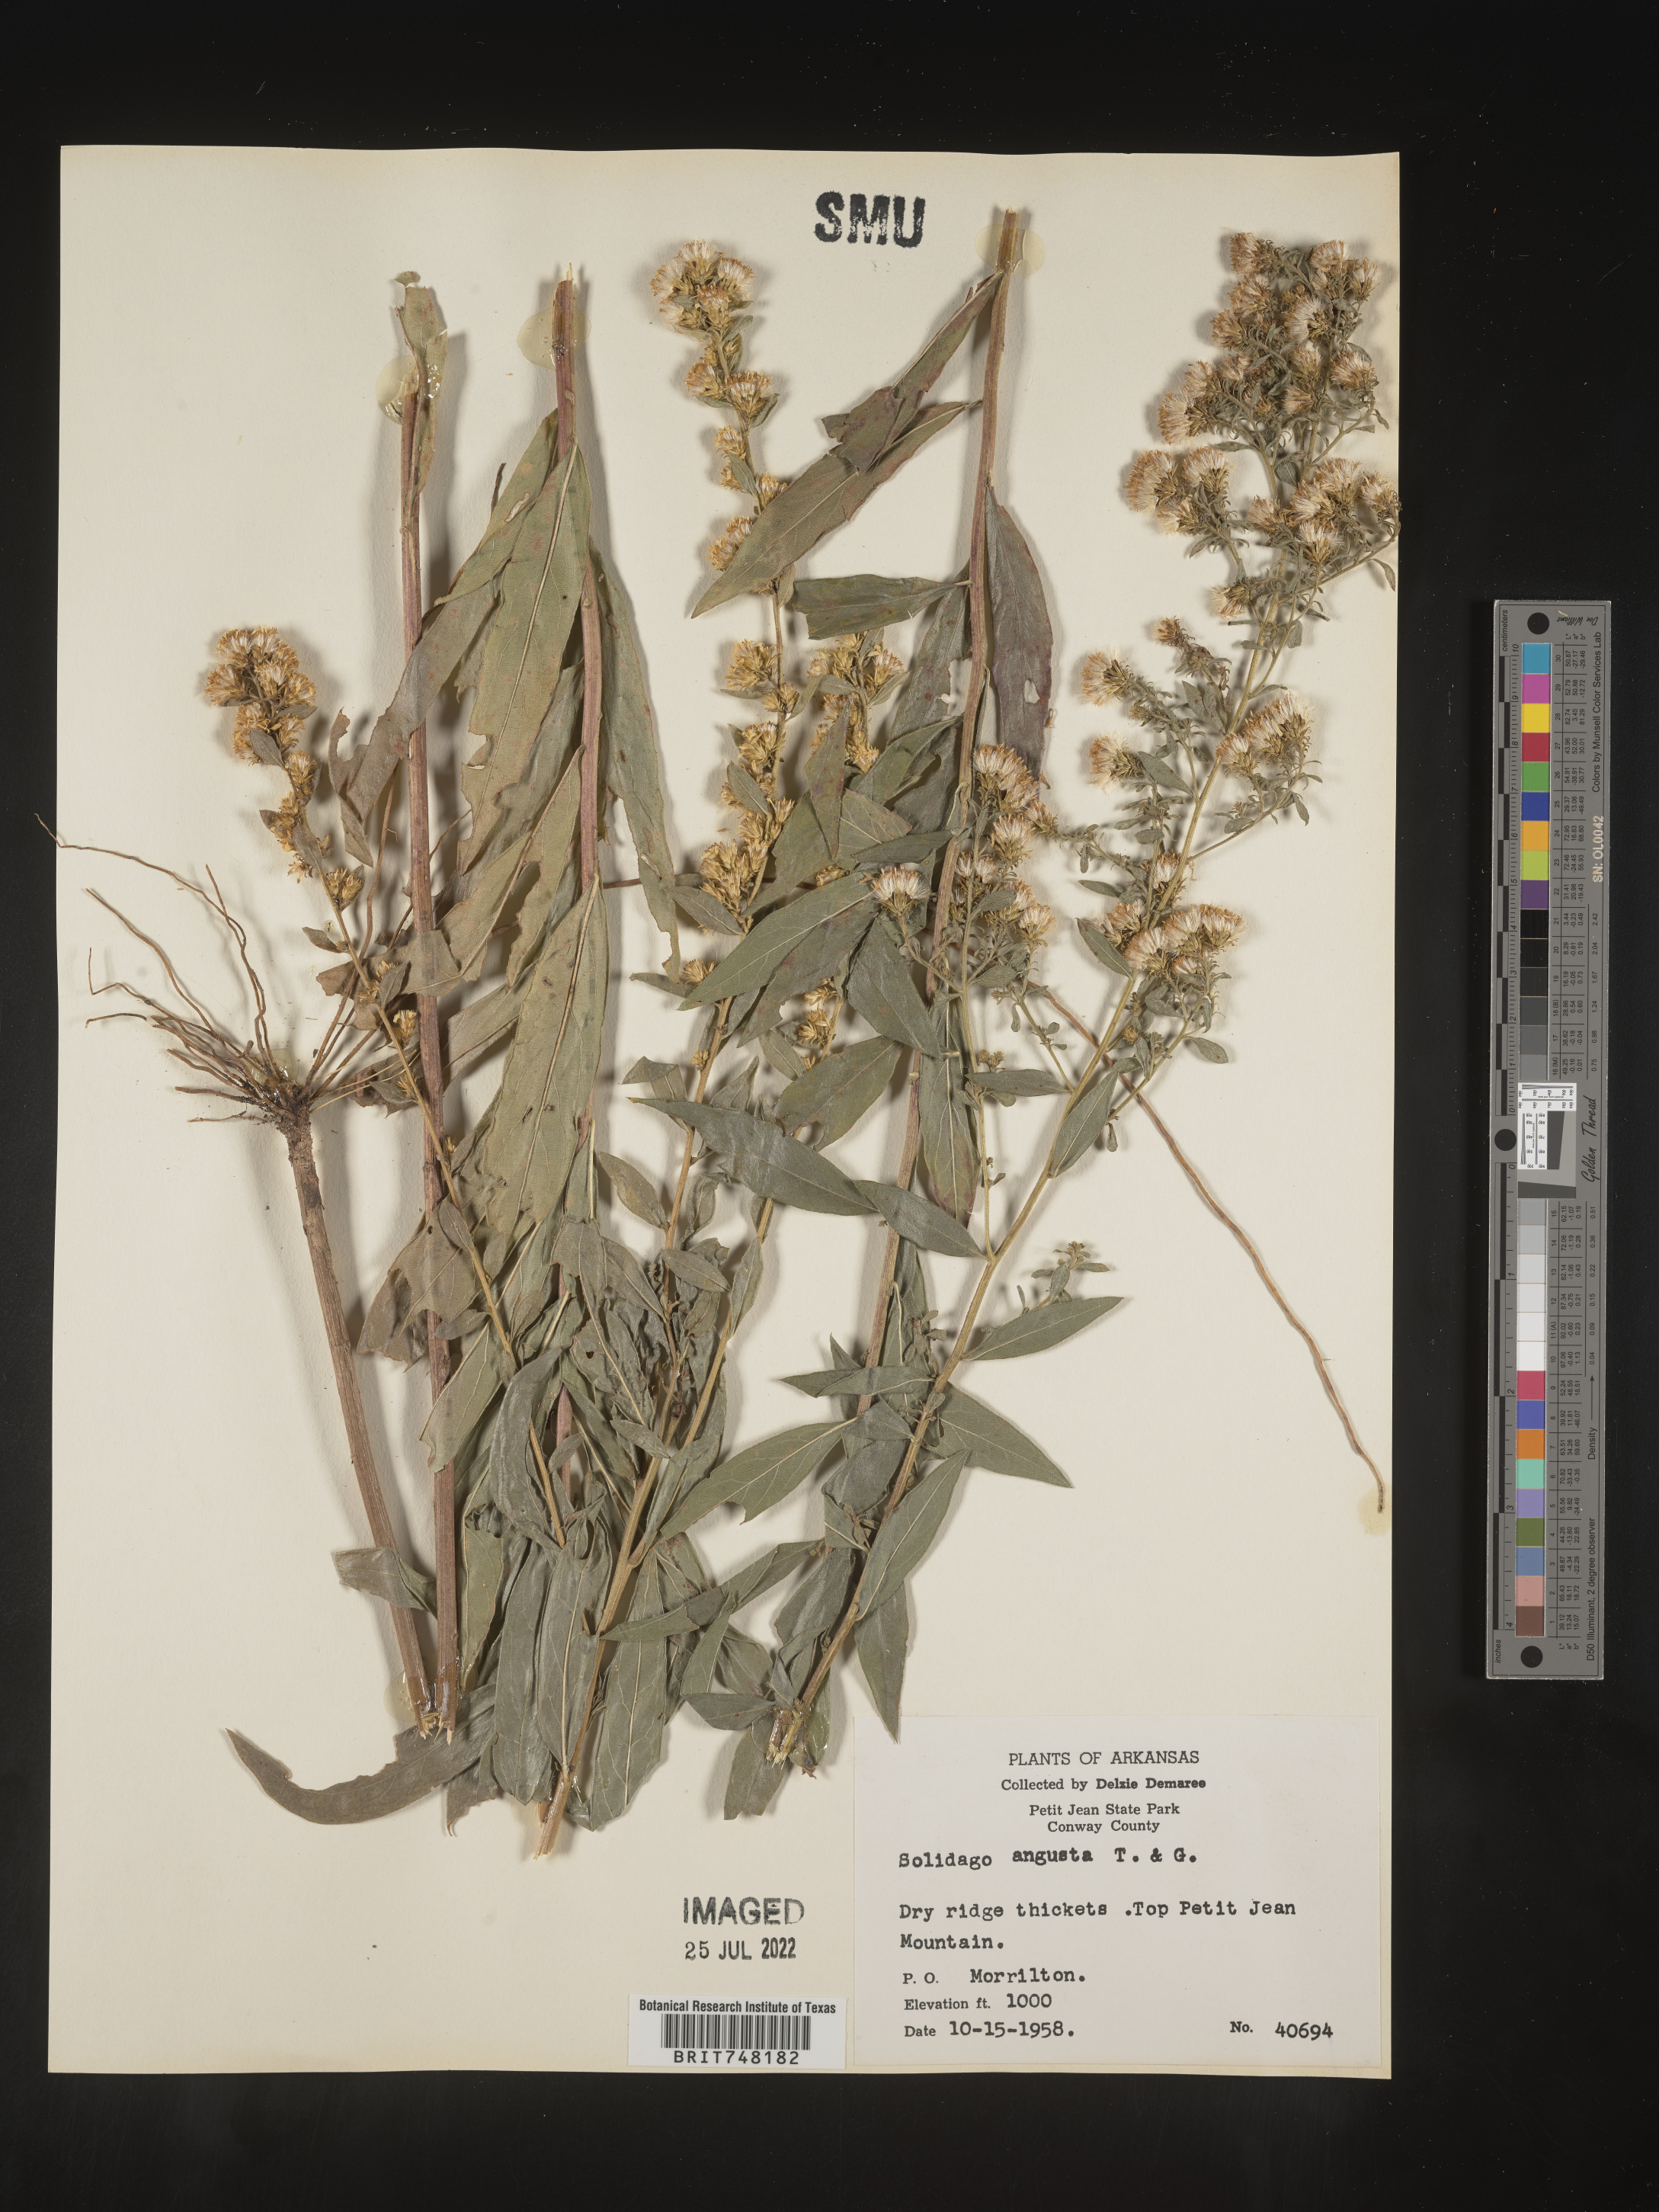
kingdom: Plantae
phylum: Tracheophyta
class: Magnoliopsida
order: Asterales
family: Asteraceae
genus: Solidago
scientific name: Solidago petiolaris
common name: Downy ragged goldenrod
